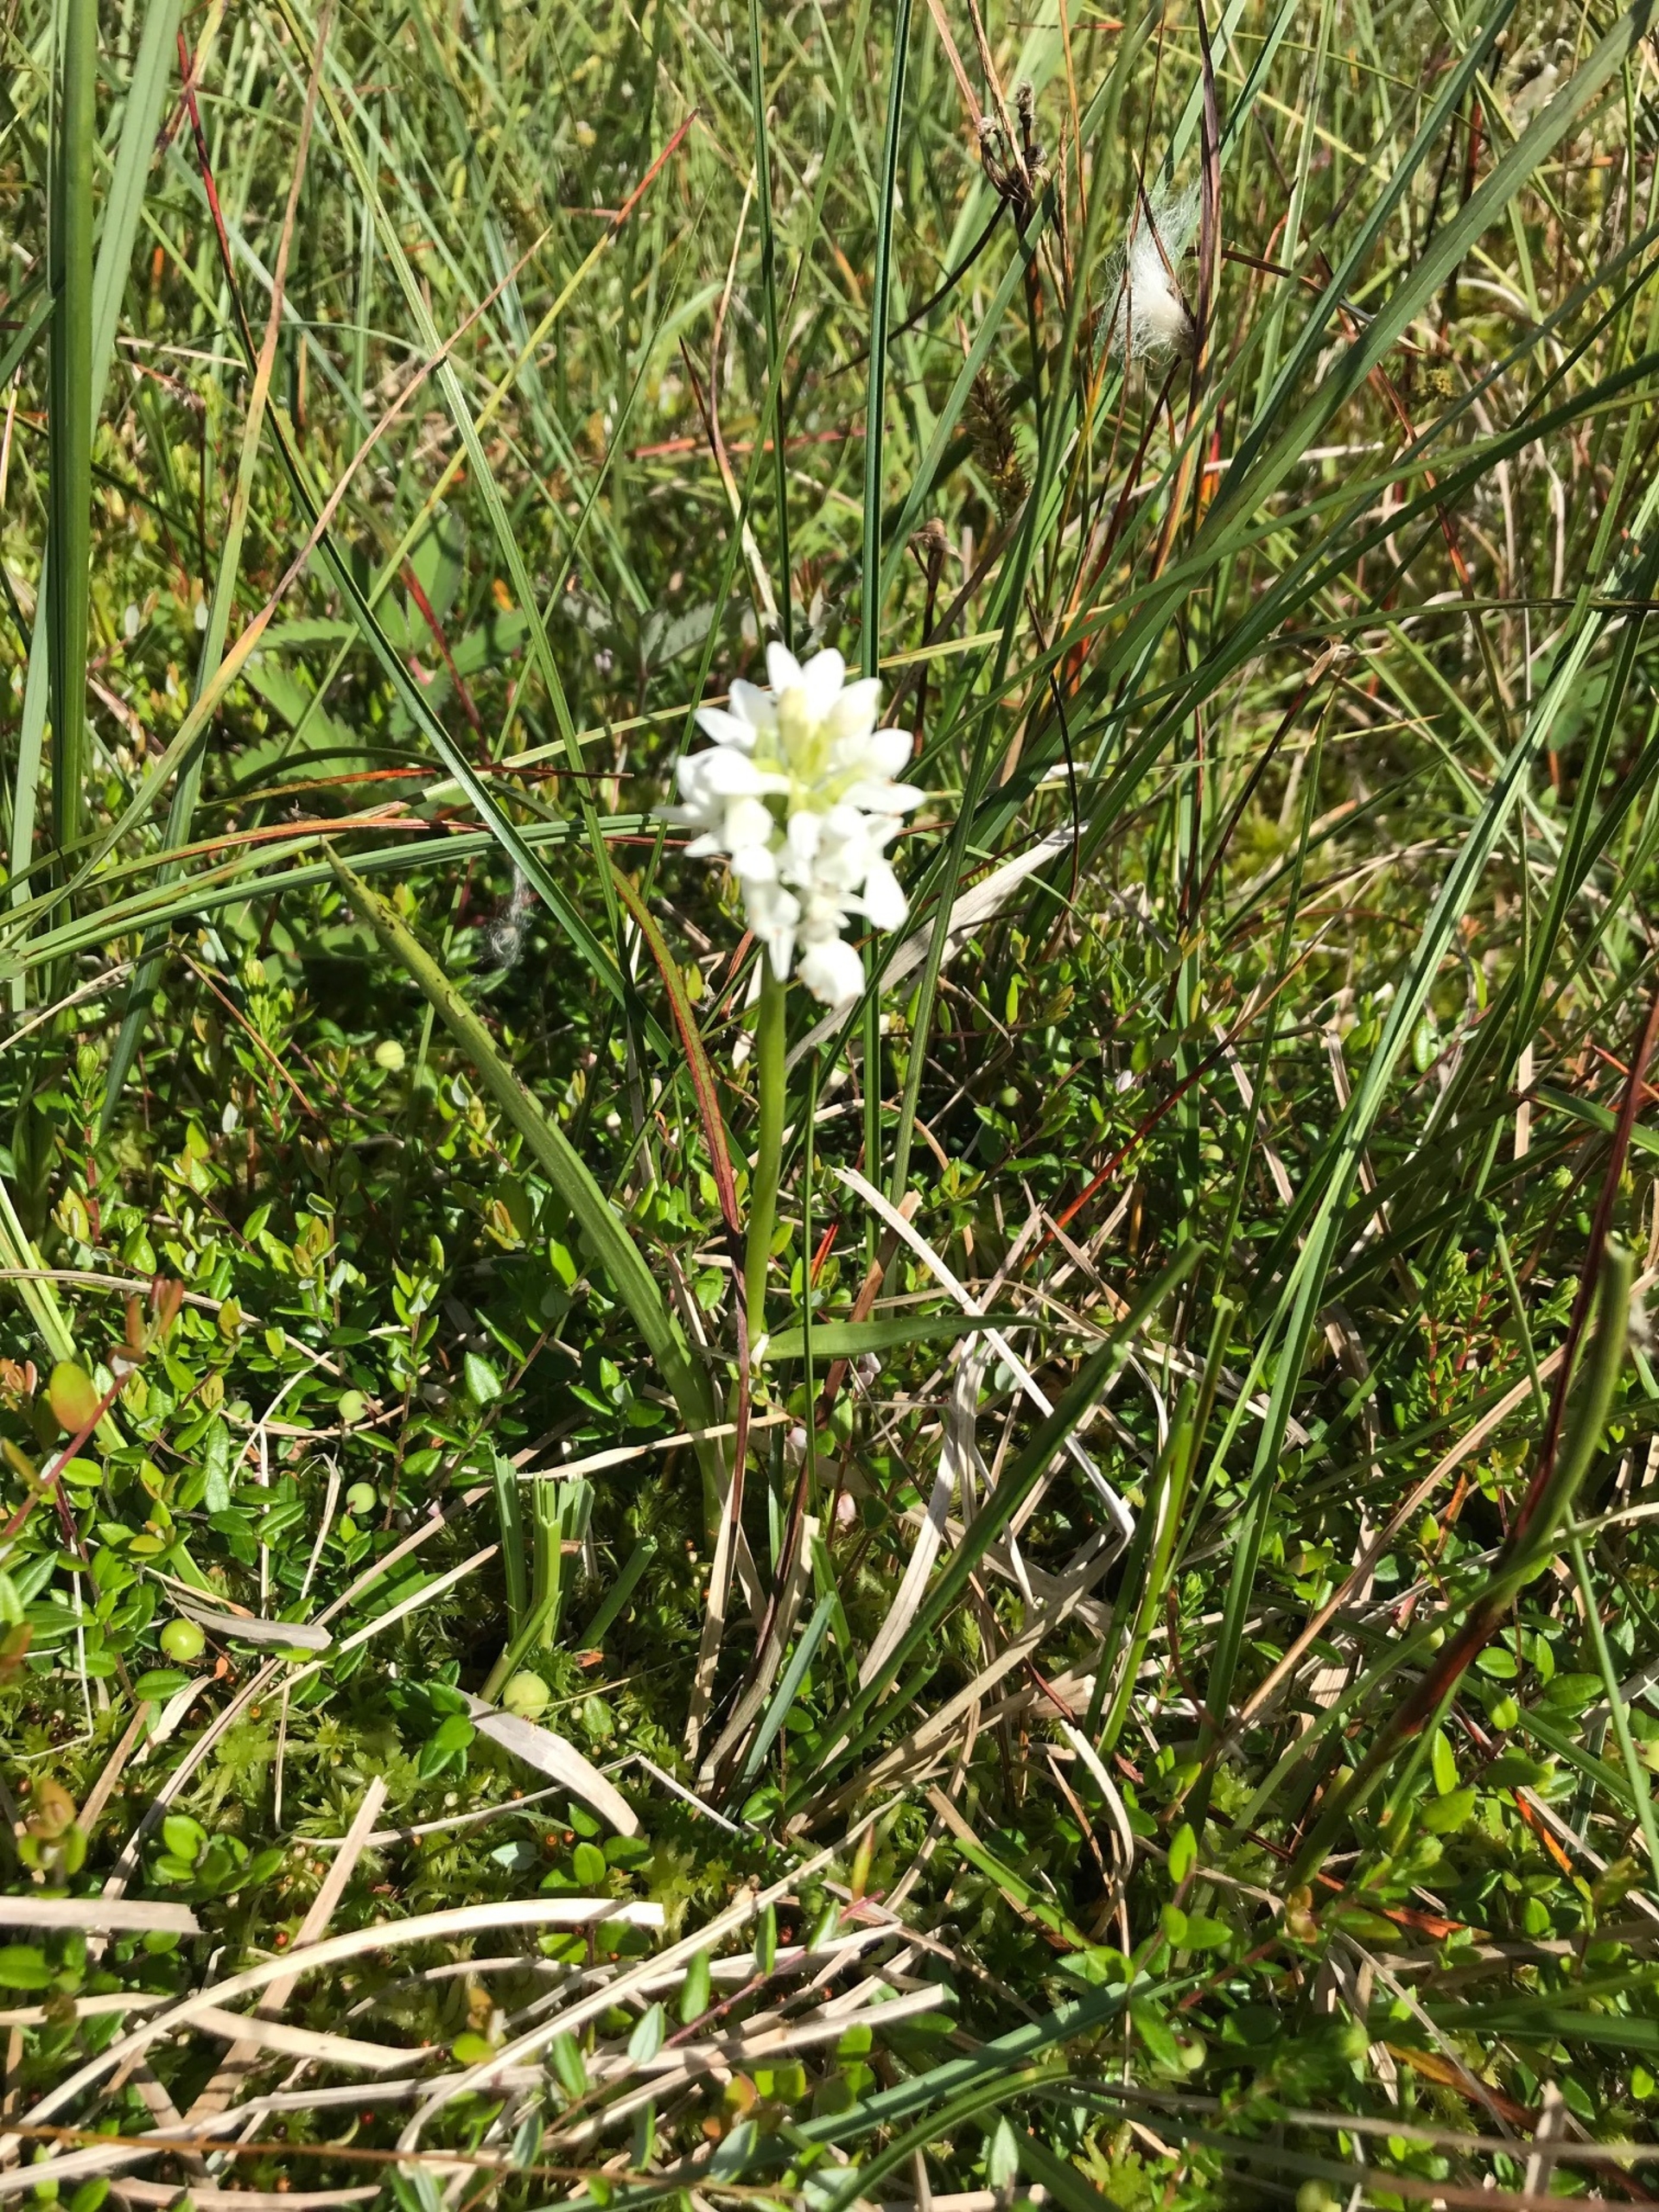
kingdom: Plantae
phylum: Tracheophyta
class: Liliopsida
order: Asparagales
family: Orchidaceae
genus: Dactylorhiza
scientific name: Dactylorhiza majalis
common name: Thy-gøgeurt
